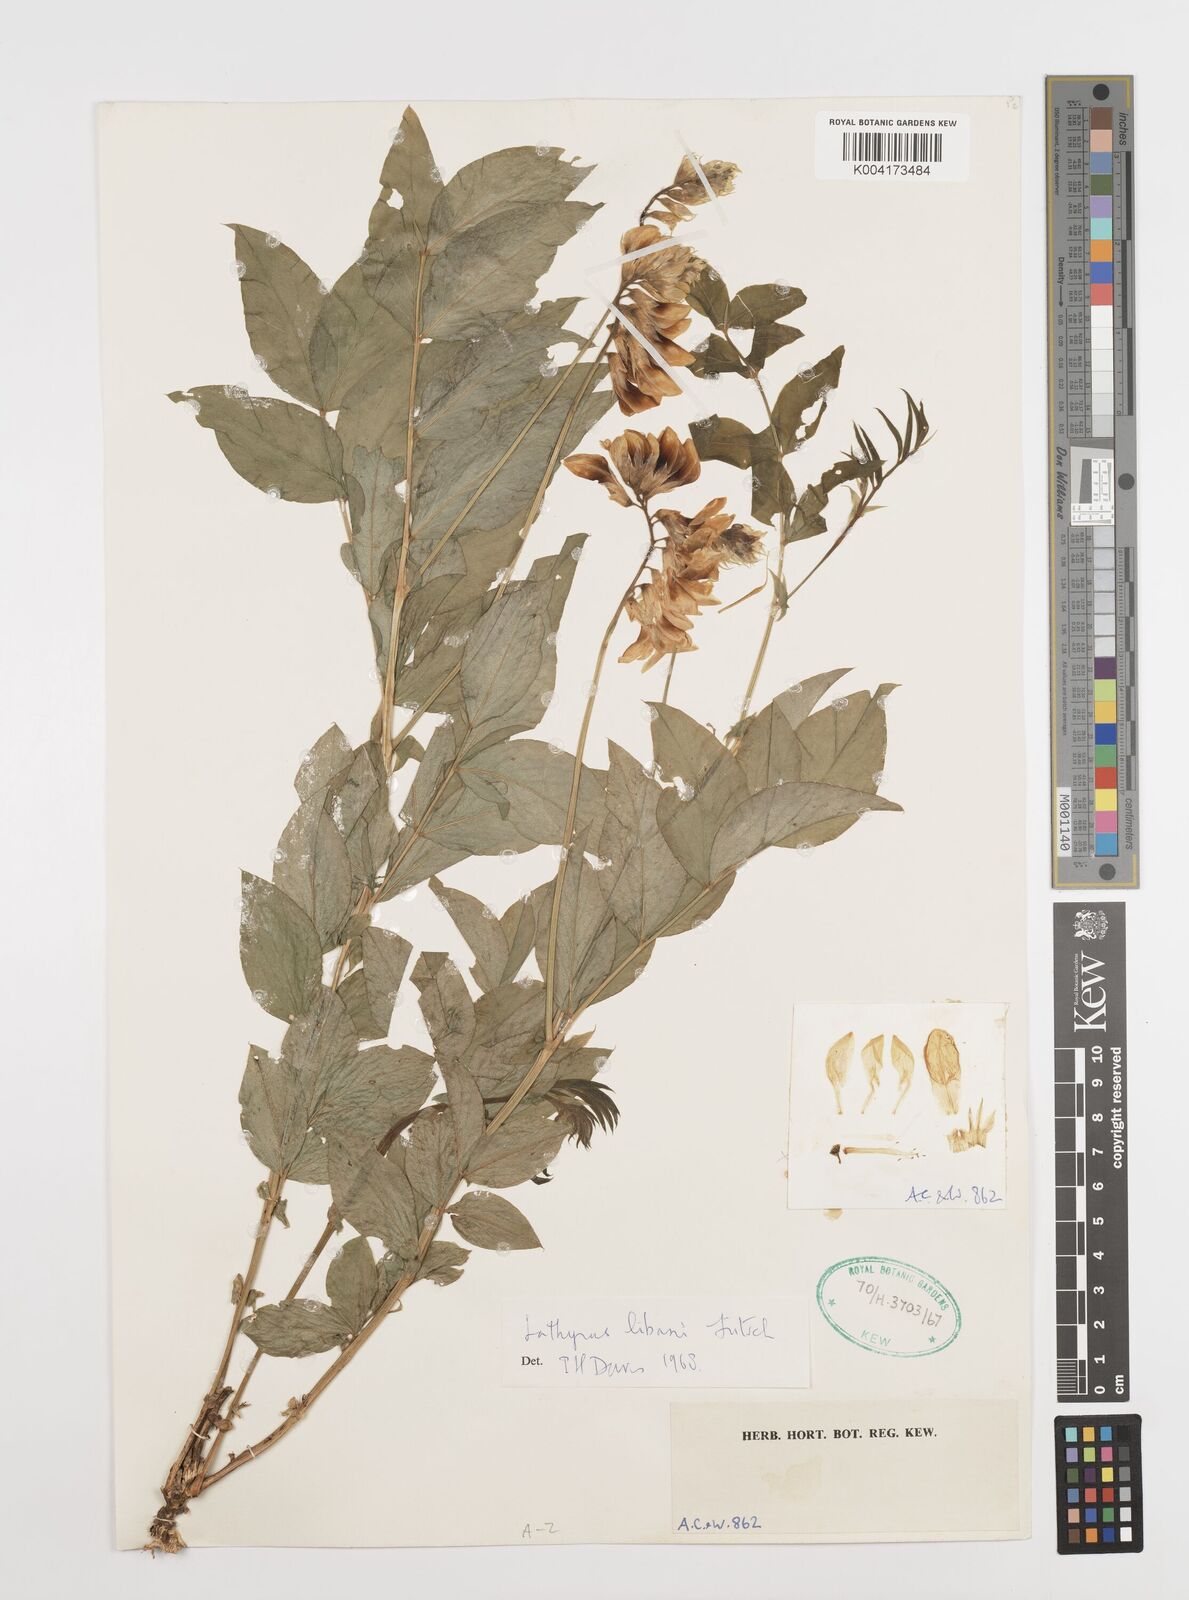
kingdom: Plantae
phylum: Tracheophyta
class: Magnoliopsida
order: Fabales
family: Fabaceae
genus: Lathyrus
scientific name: Lathyrus libani
